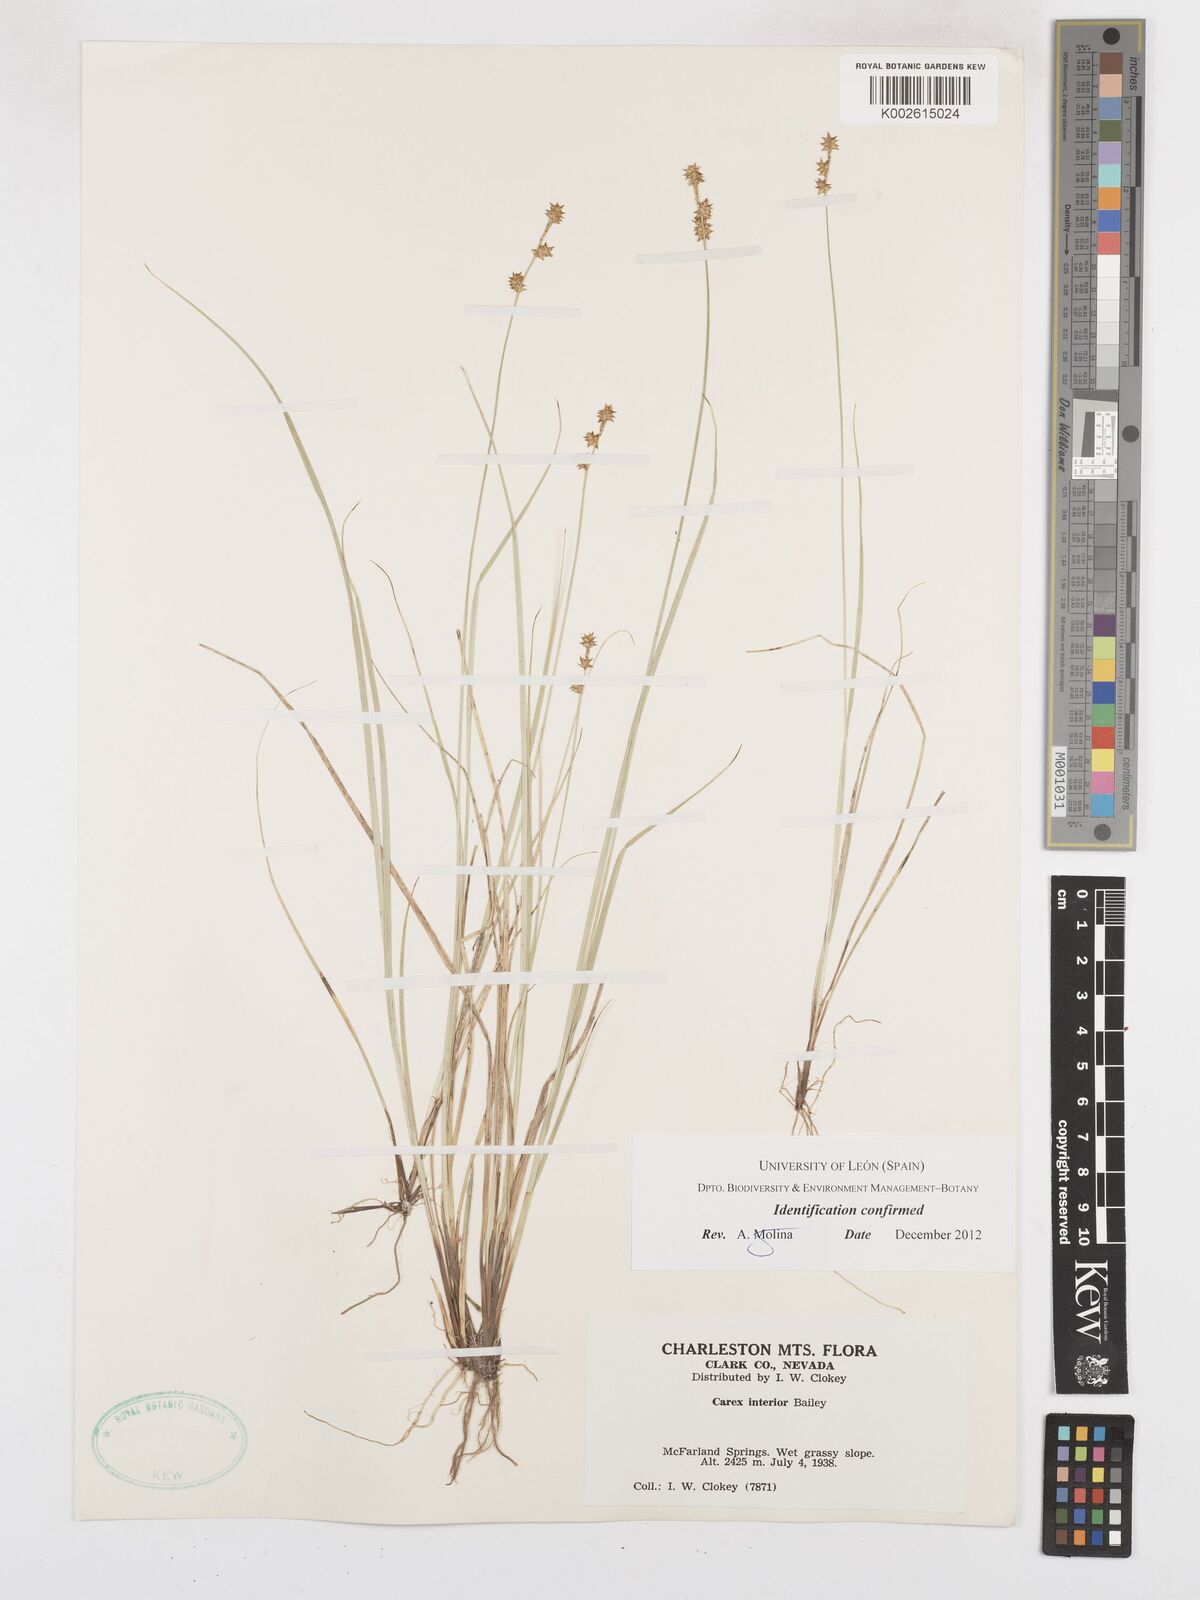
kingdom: Plantae
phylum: Tracheophyta
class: Liliopsida
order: Poales
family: Cyperaceae
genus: Carex
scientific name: Carex interior
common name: Inland sedge
